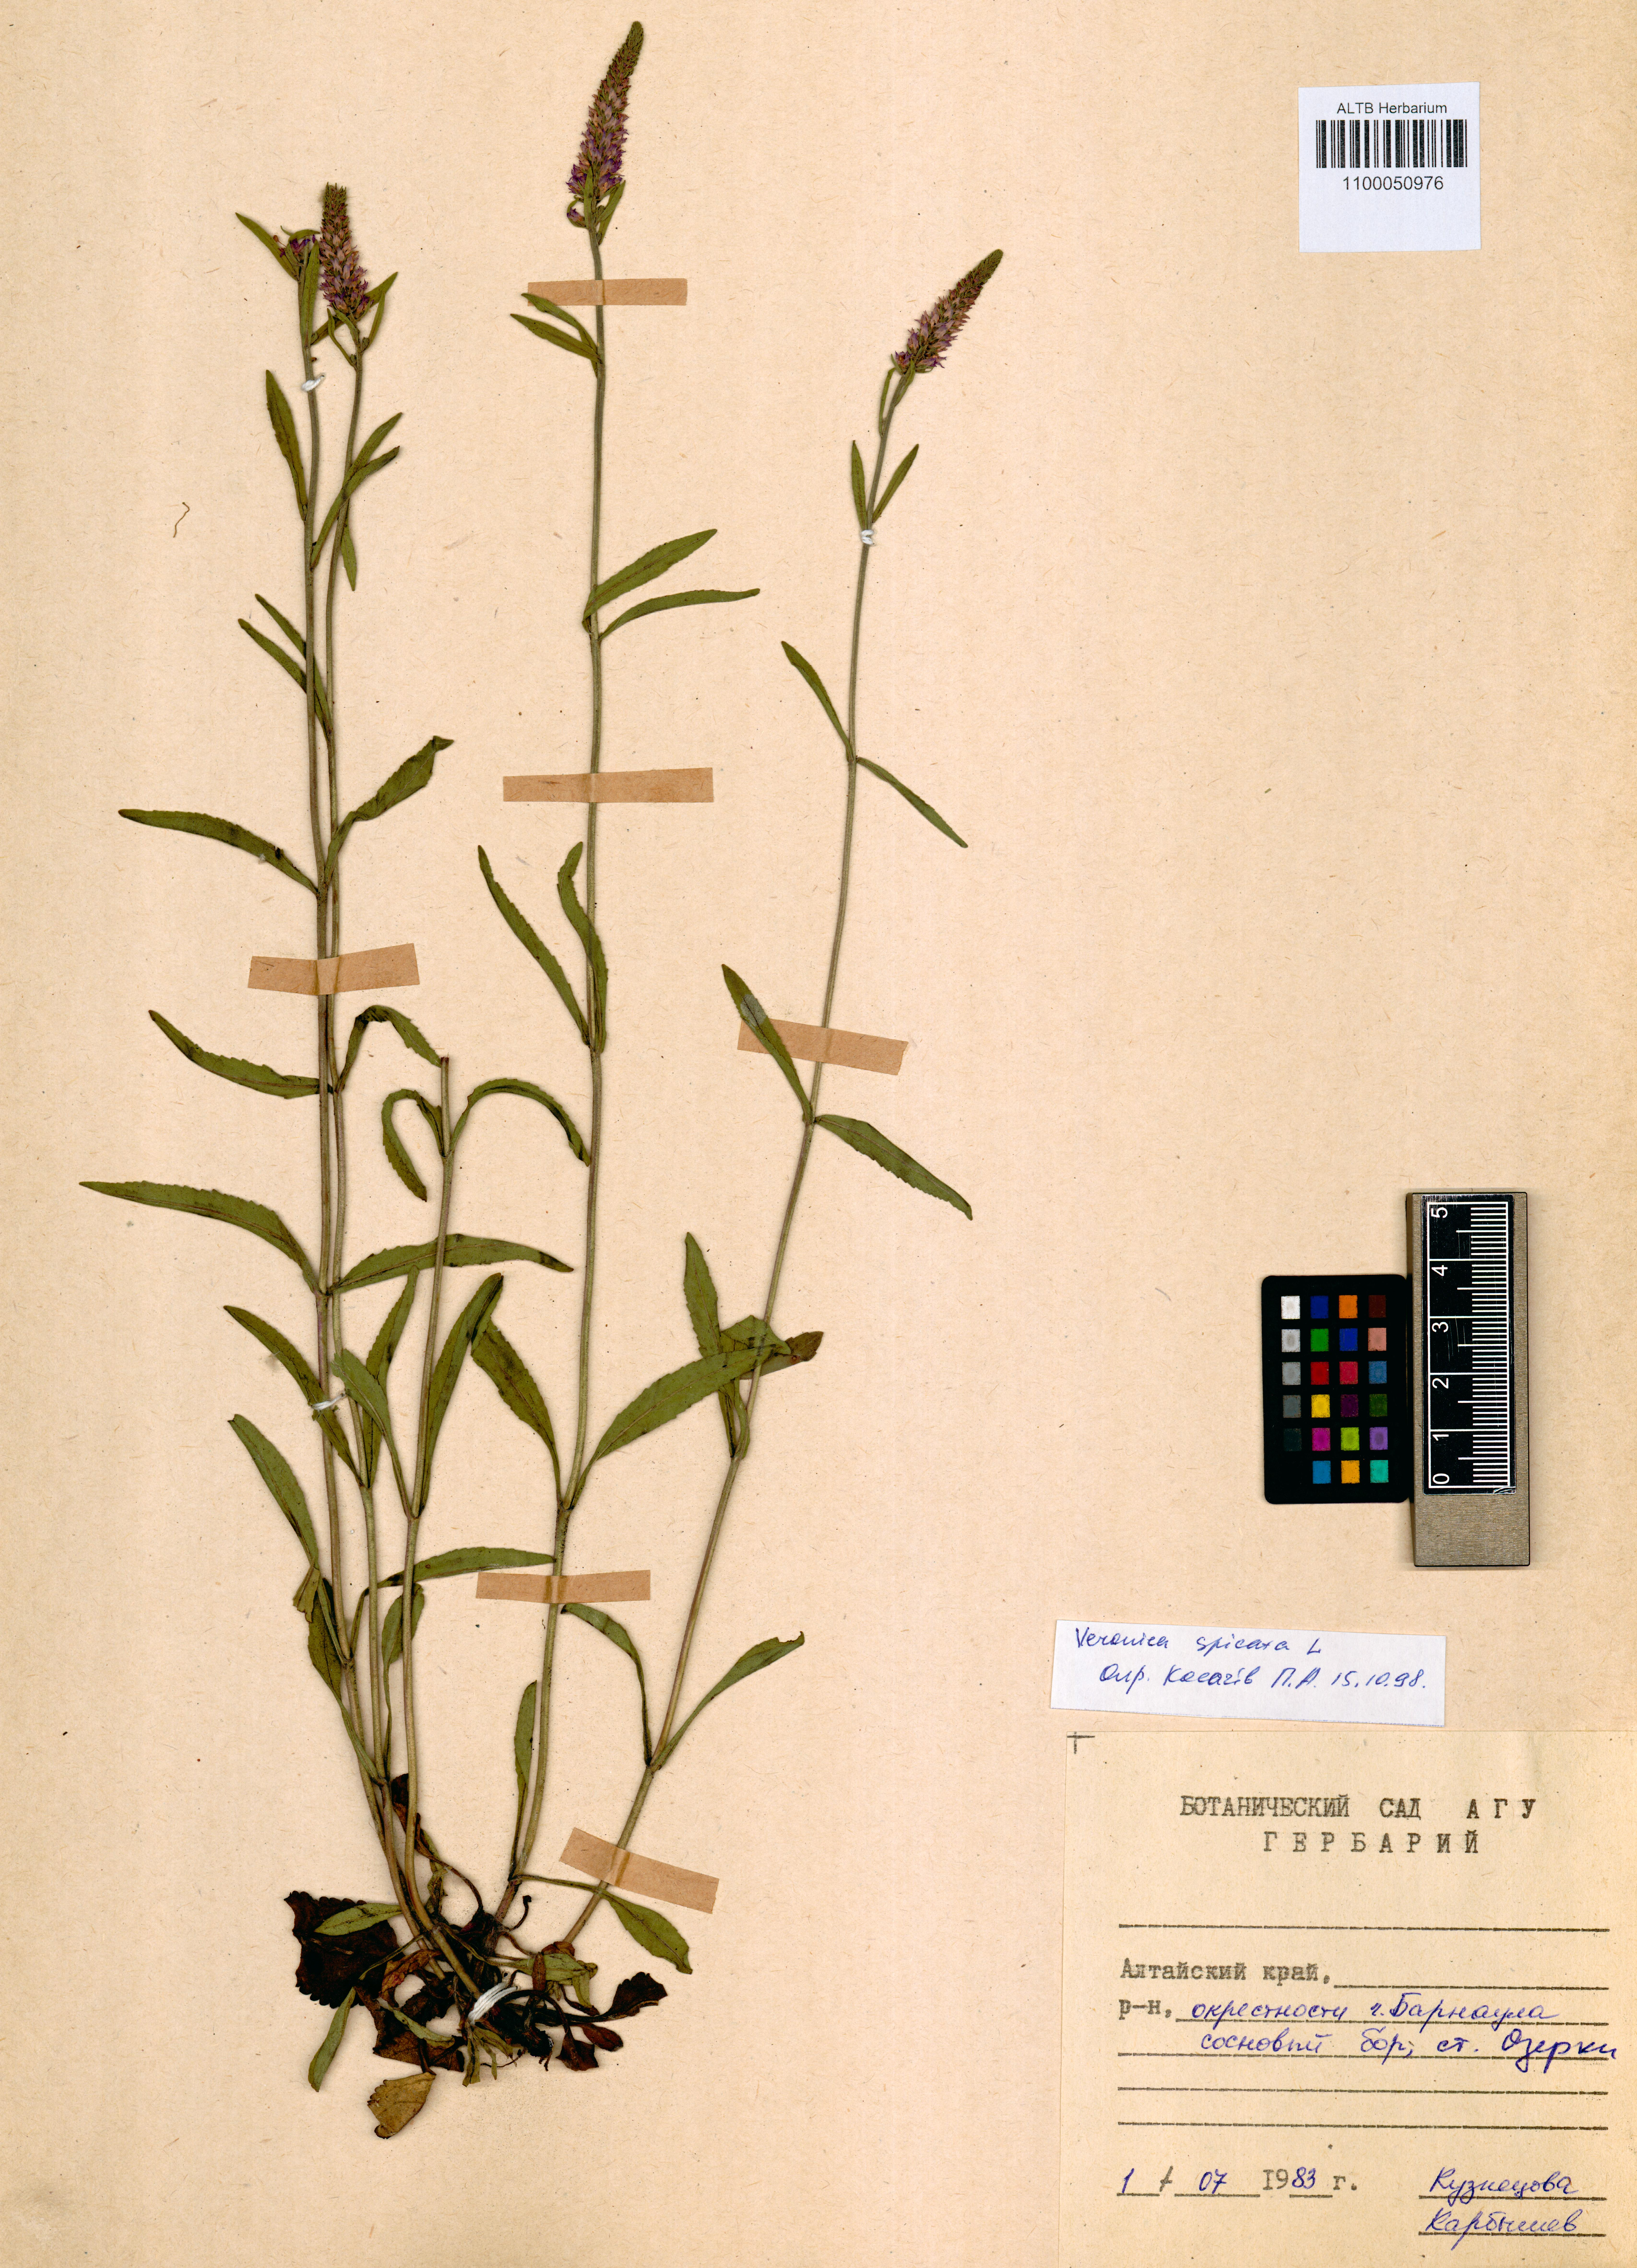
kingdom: Plantae
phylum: Tracheophyta
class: Magnoliopsida
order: Lamiales
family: Plantaginaceae
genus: Veronica
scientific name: Veronica spicata
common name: Spiked speedwell
